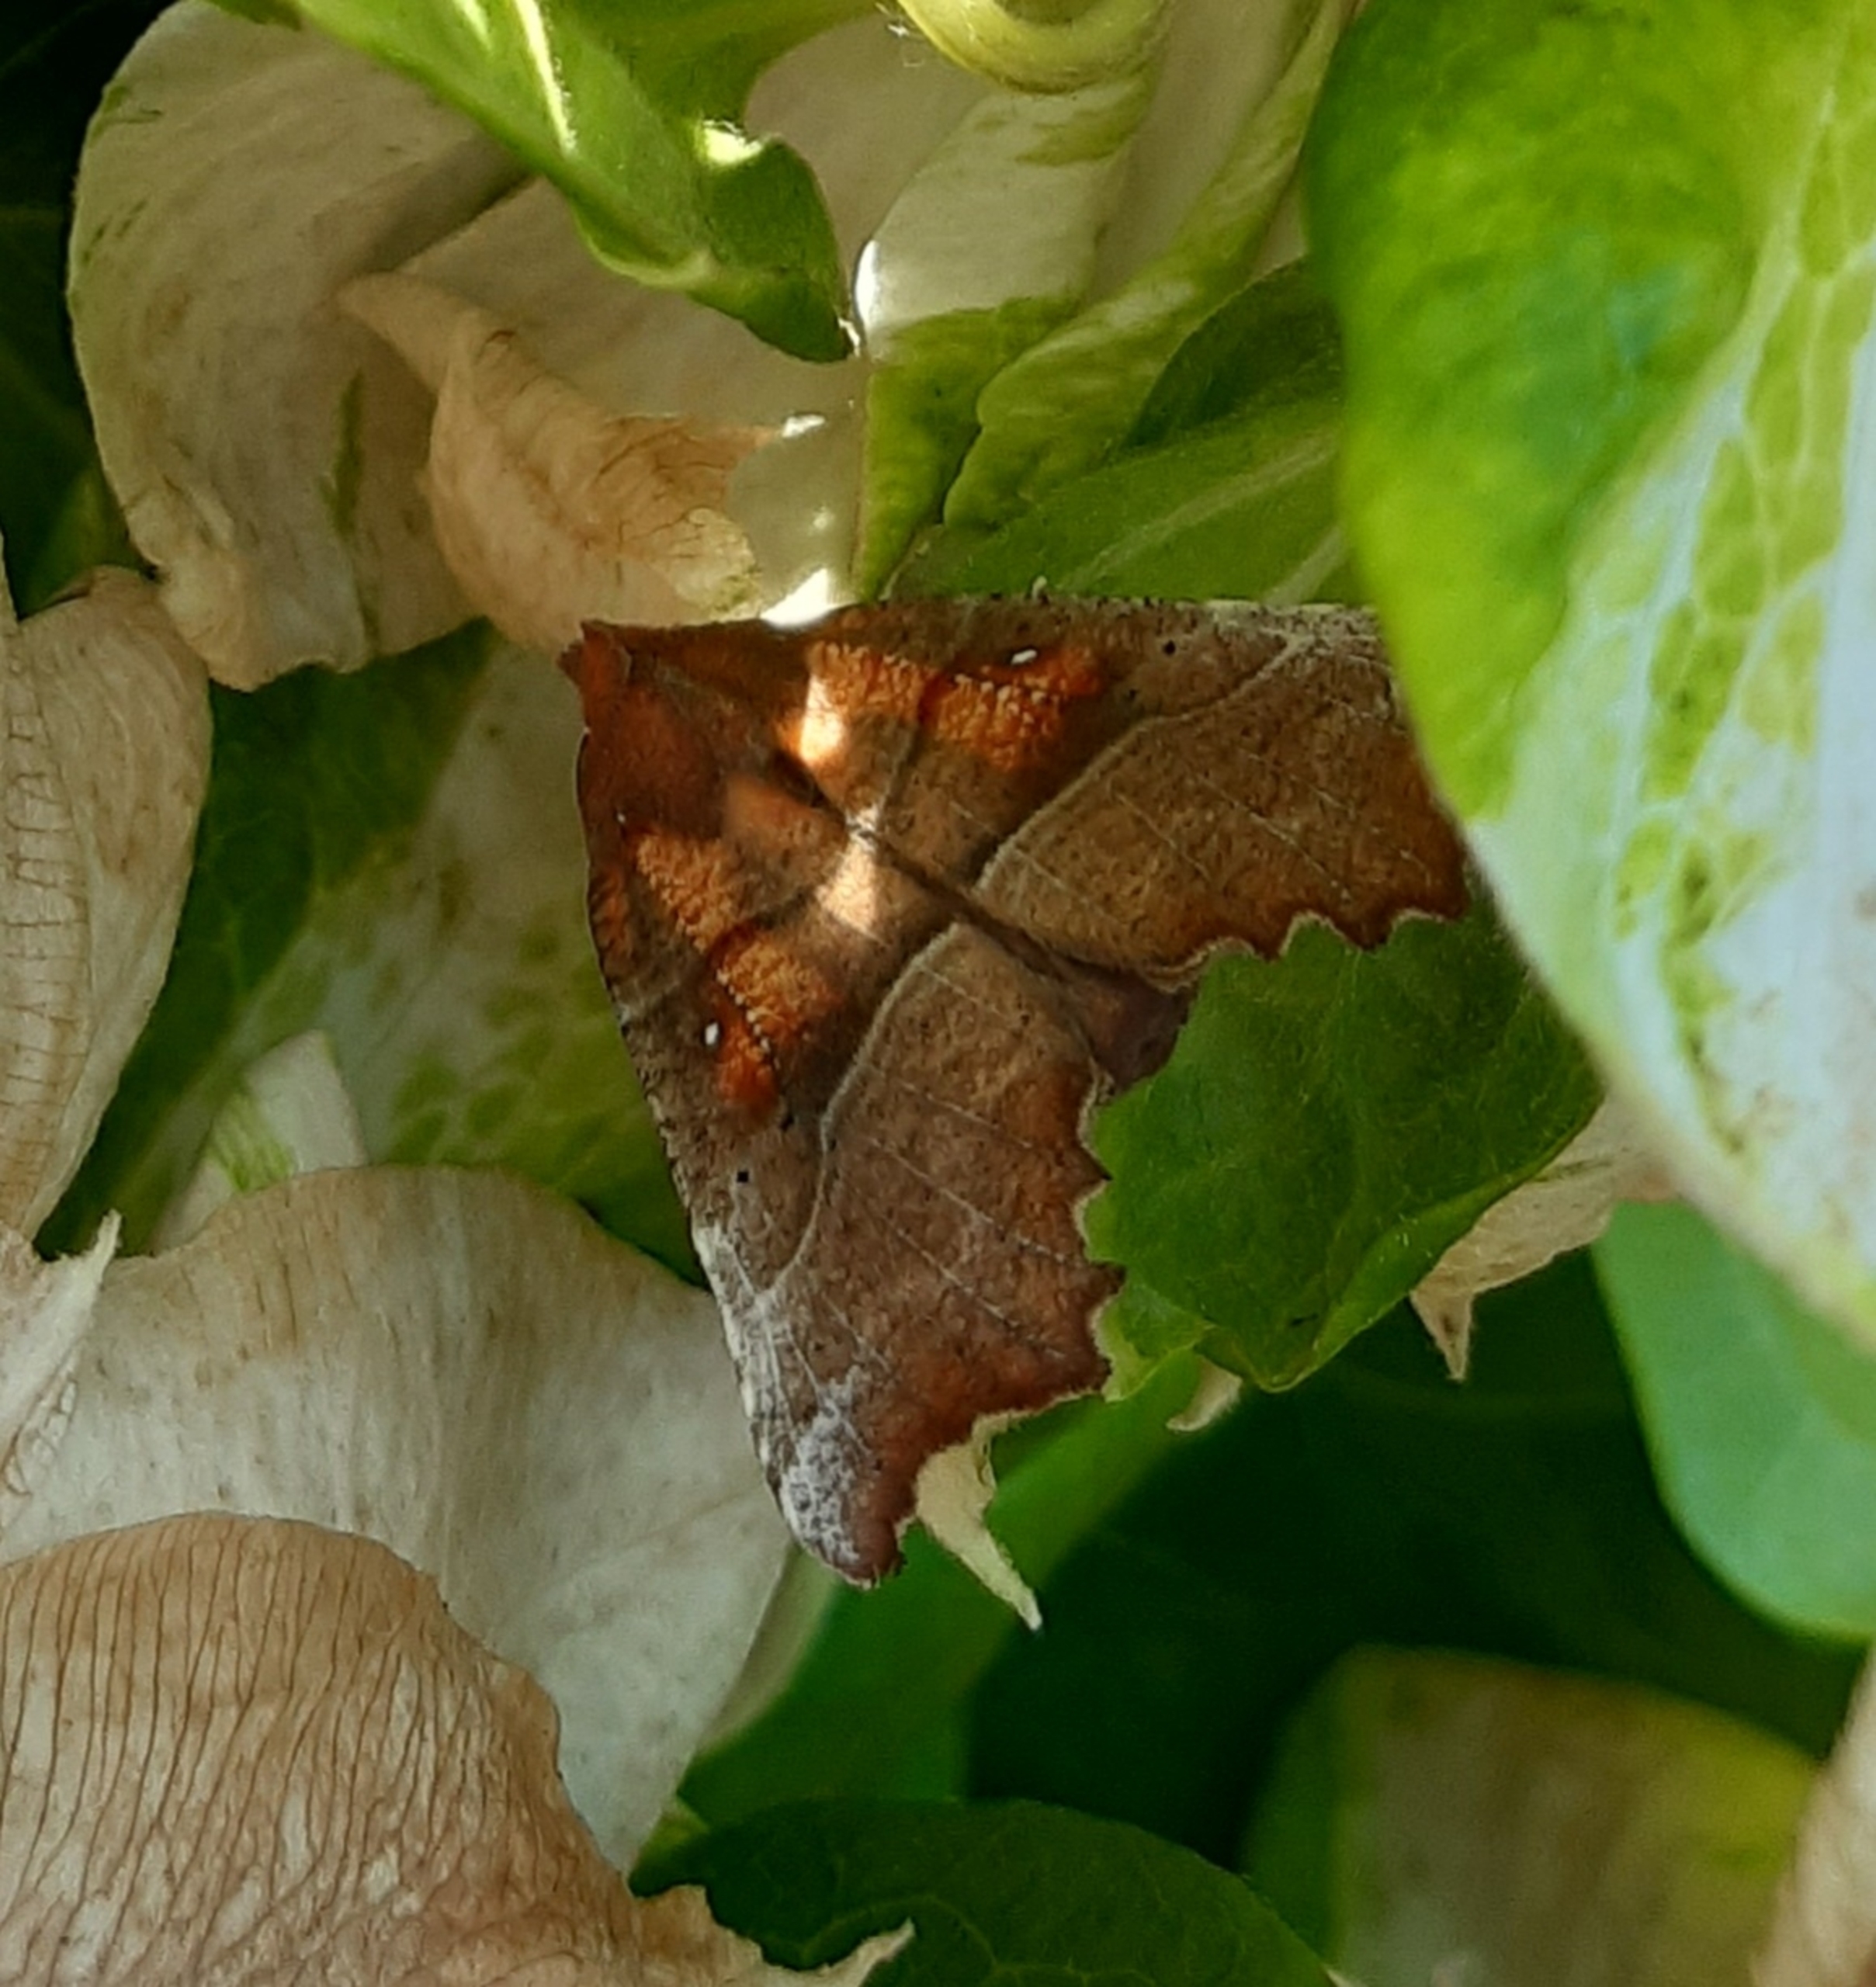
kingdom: Animalia
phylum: Arthropoda
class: Insecta
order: Lepidoptera
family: Erebidae
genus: Scoliopteryx
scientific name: Scoliopteryx libatrix
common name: Husmoderugle
